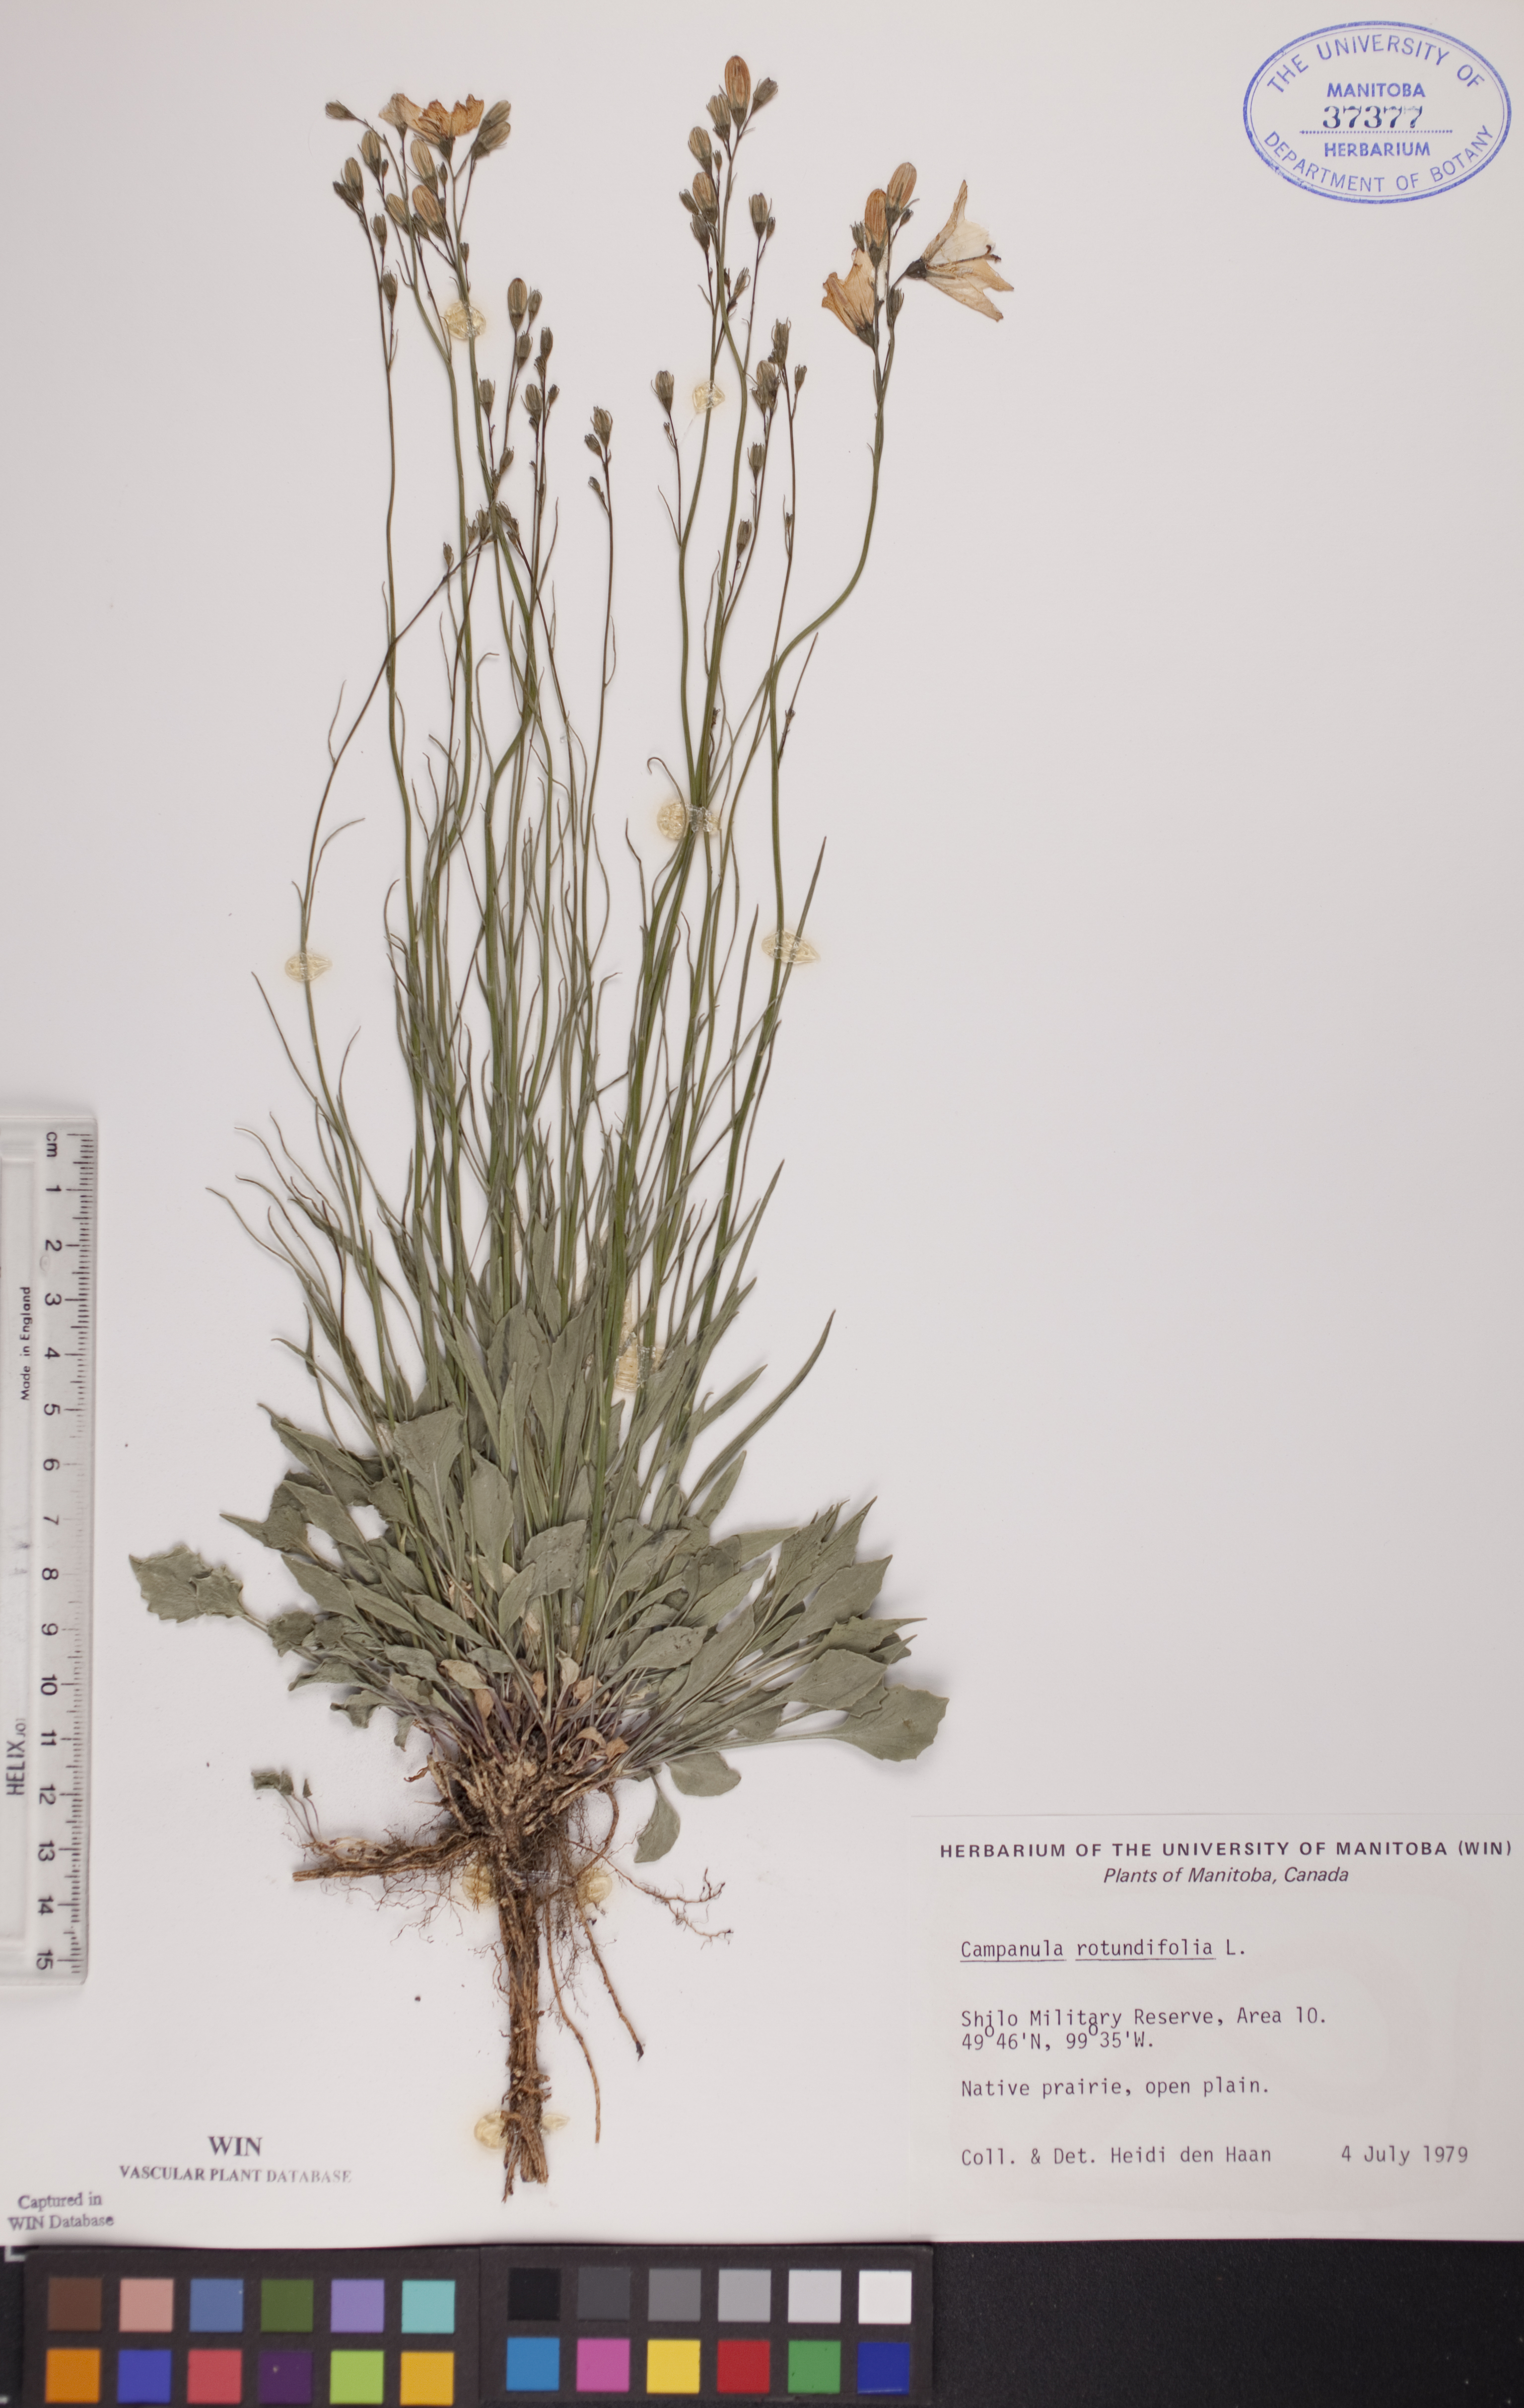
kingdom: Plantae
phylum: Tracheophyta
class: Magnoliopsida
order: Asterales
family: Campanulaceae
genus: Campanula
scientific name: Campanula rotundifolia
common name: Harebell
